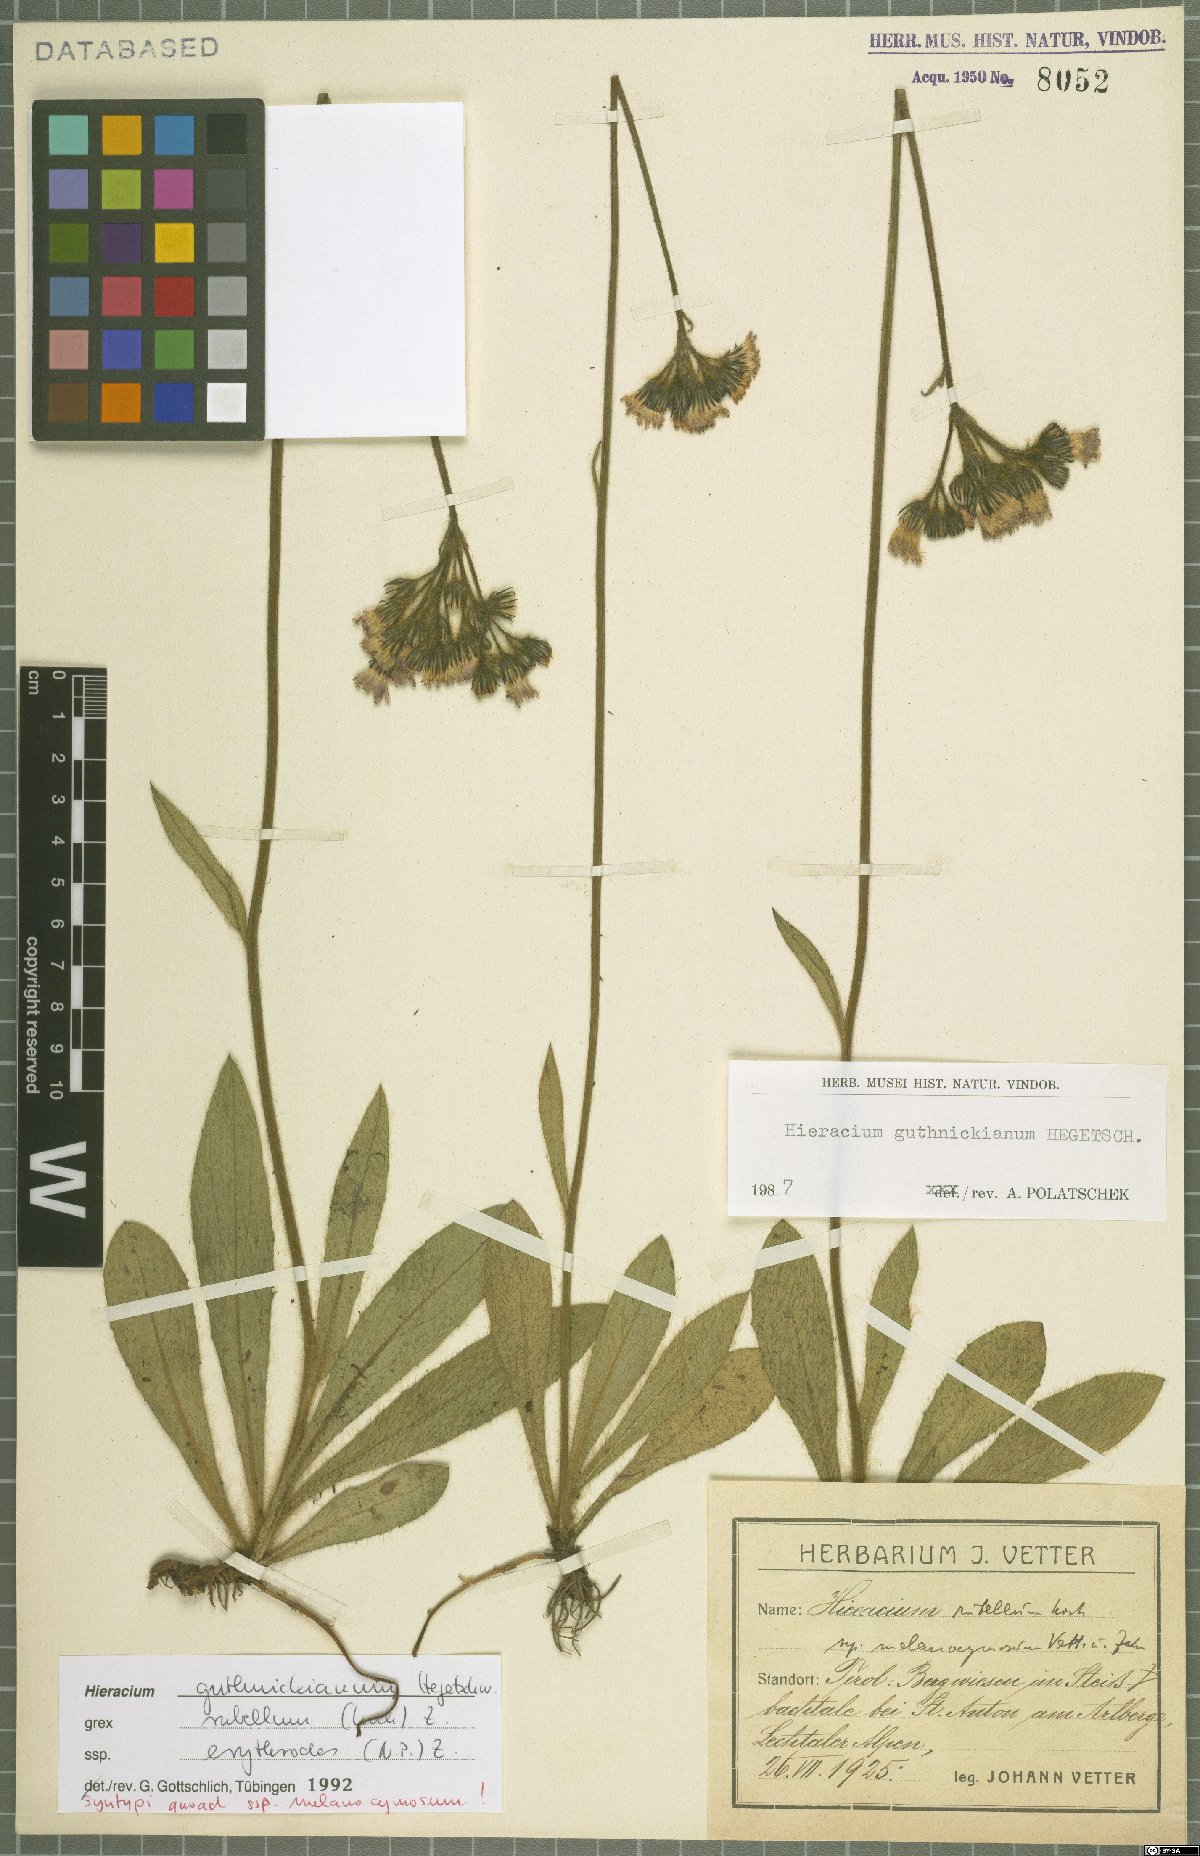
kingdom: Plantae
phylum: Tracheophyta
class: Magnoliopsida
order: Asterales
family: Asteraceae
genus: Pilosella
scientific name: Pilosella guthnikiana
